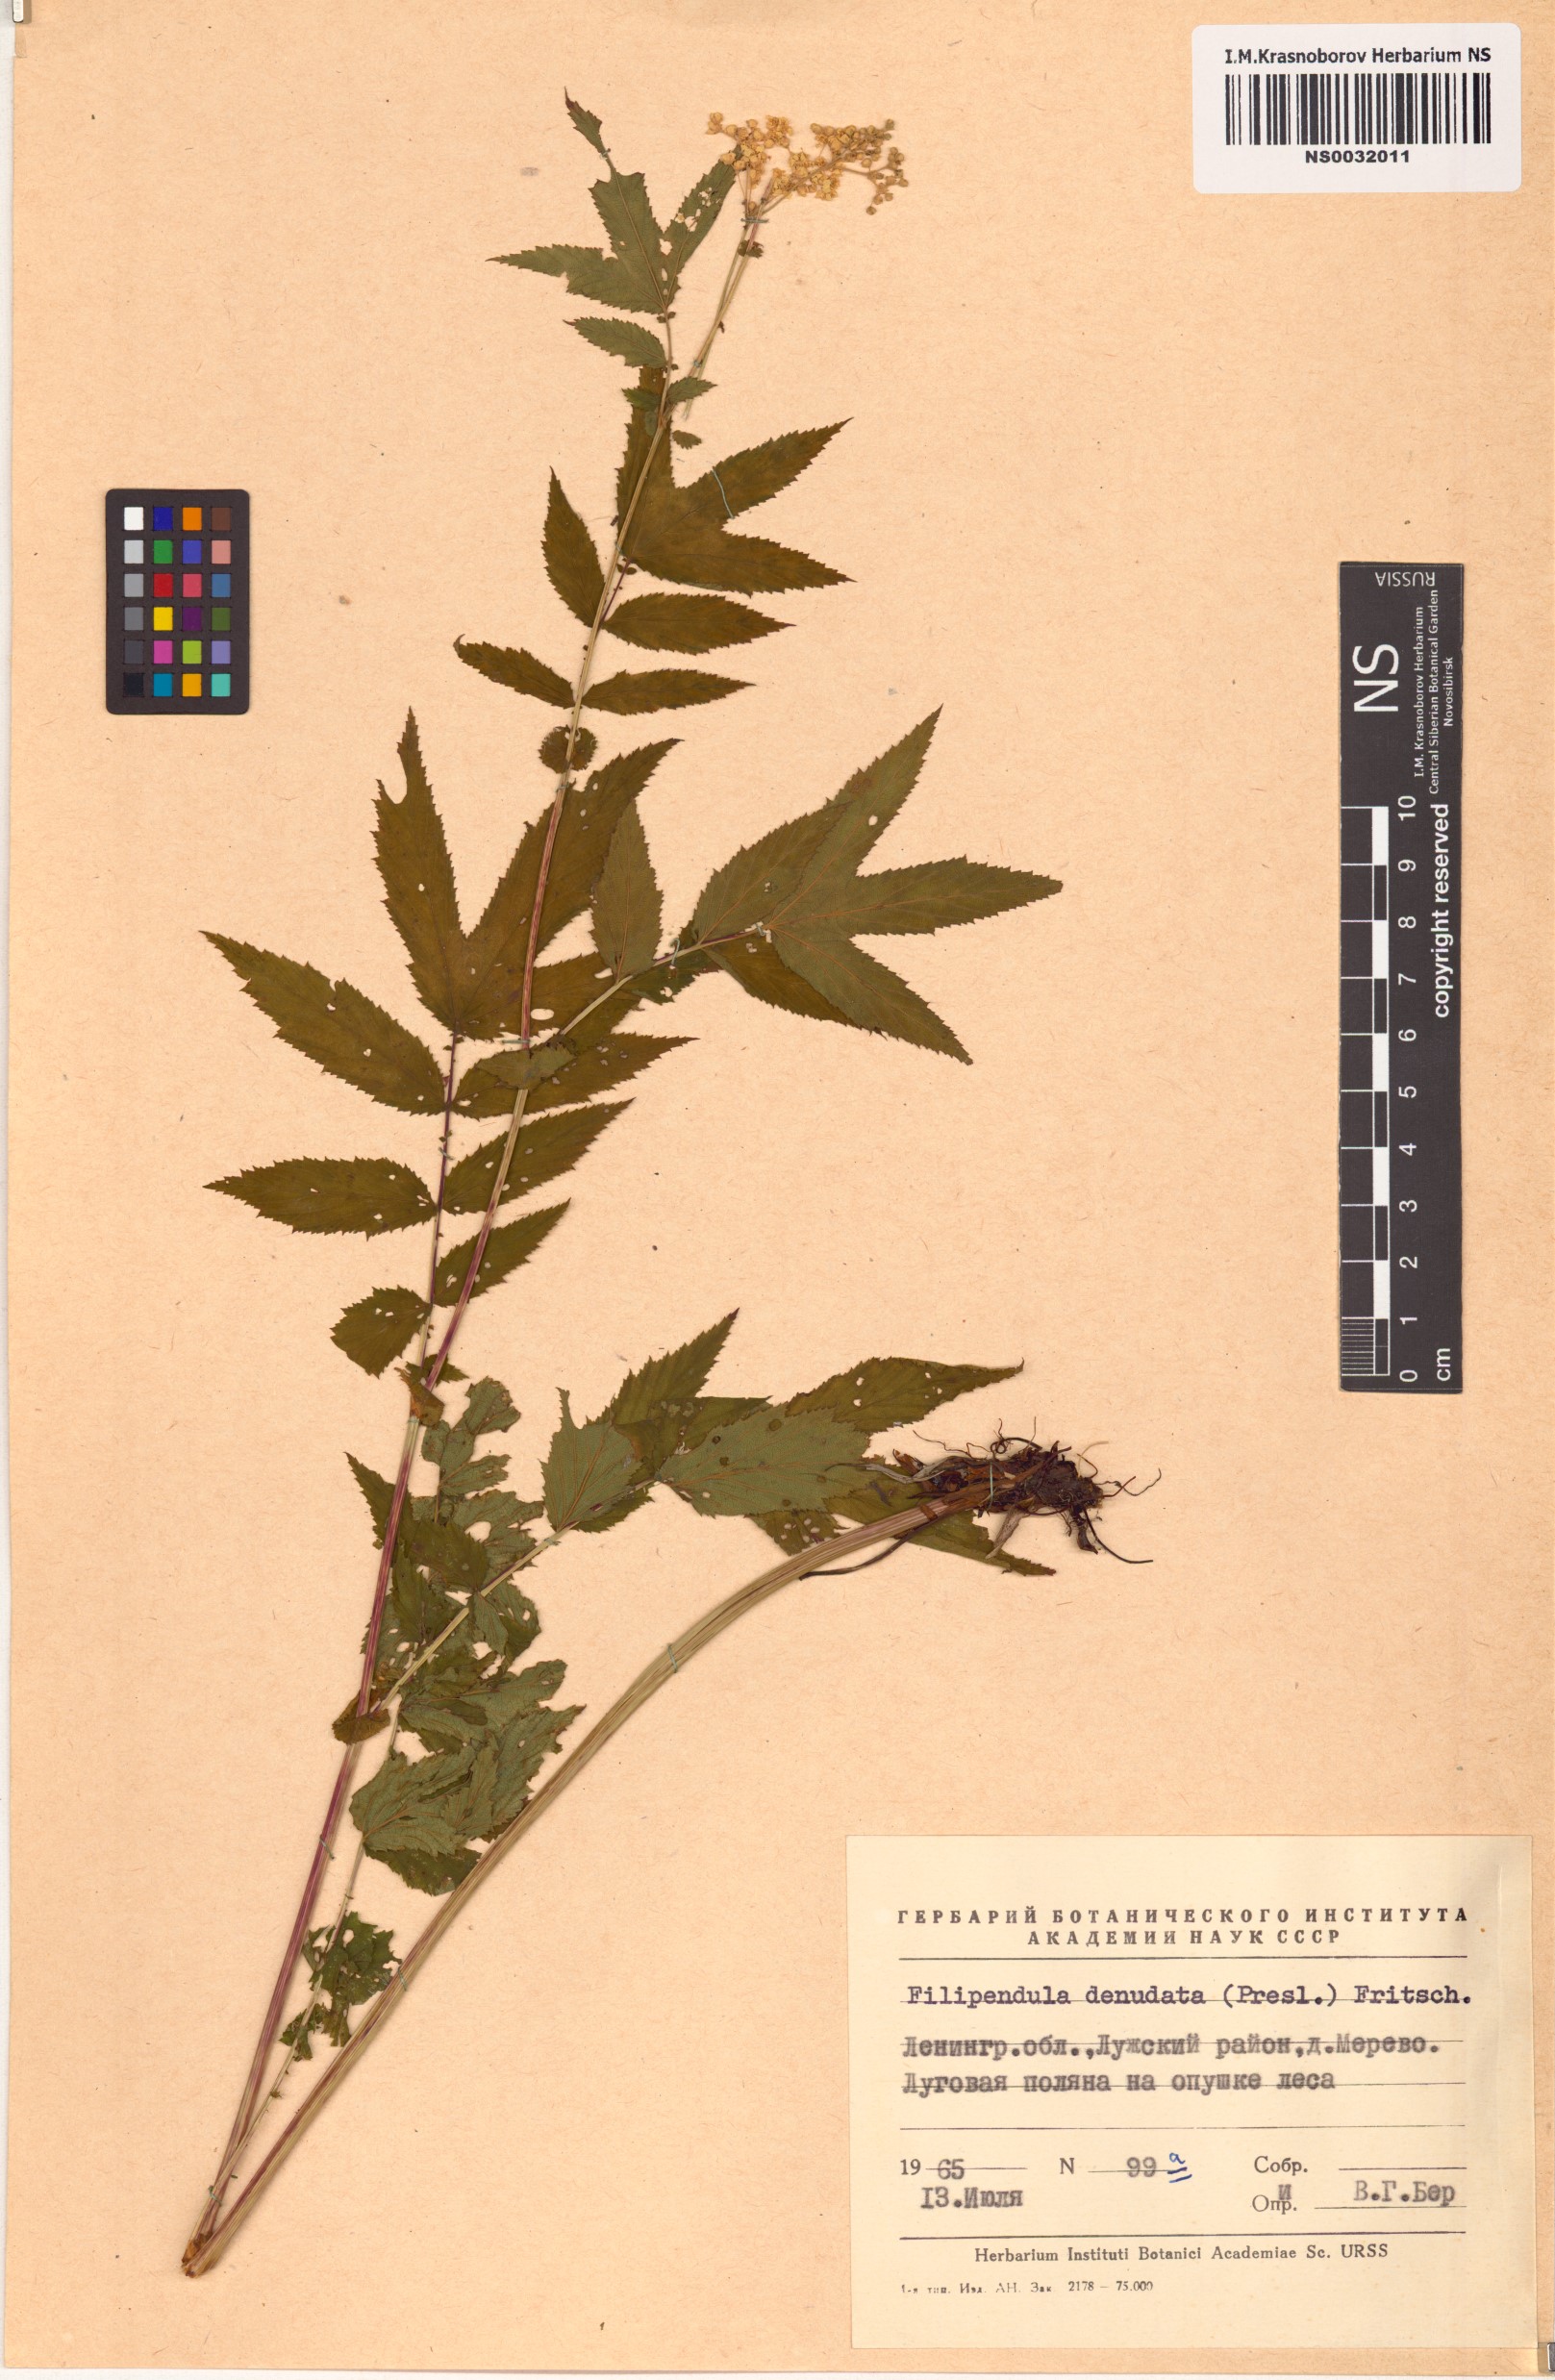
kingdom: Plantae
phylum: Tracheophyta
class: Magnoliopsida
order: Rosales
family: Rosaceae
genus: Filipendula
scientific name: Filipendula ulmaria
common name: Meadowsweet
